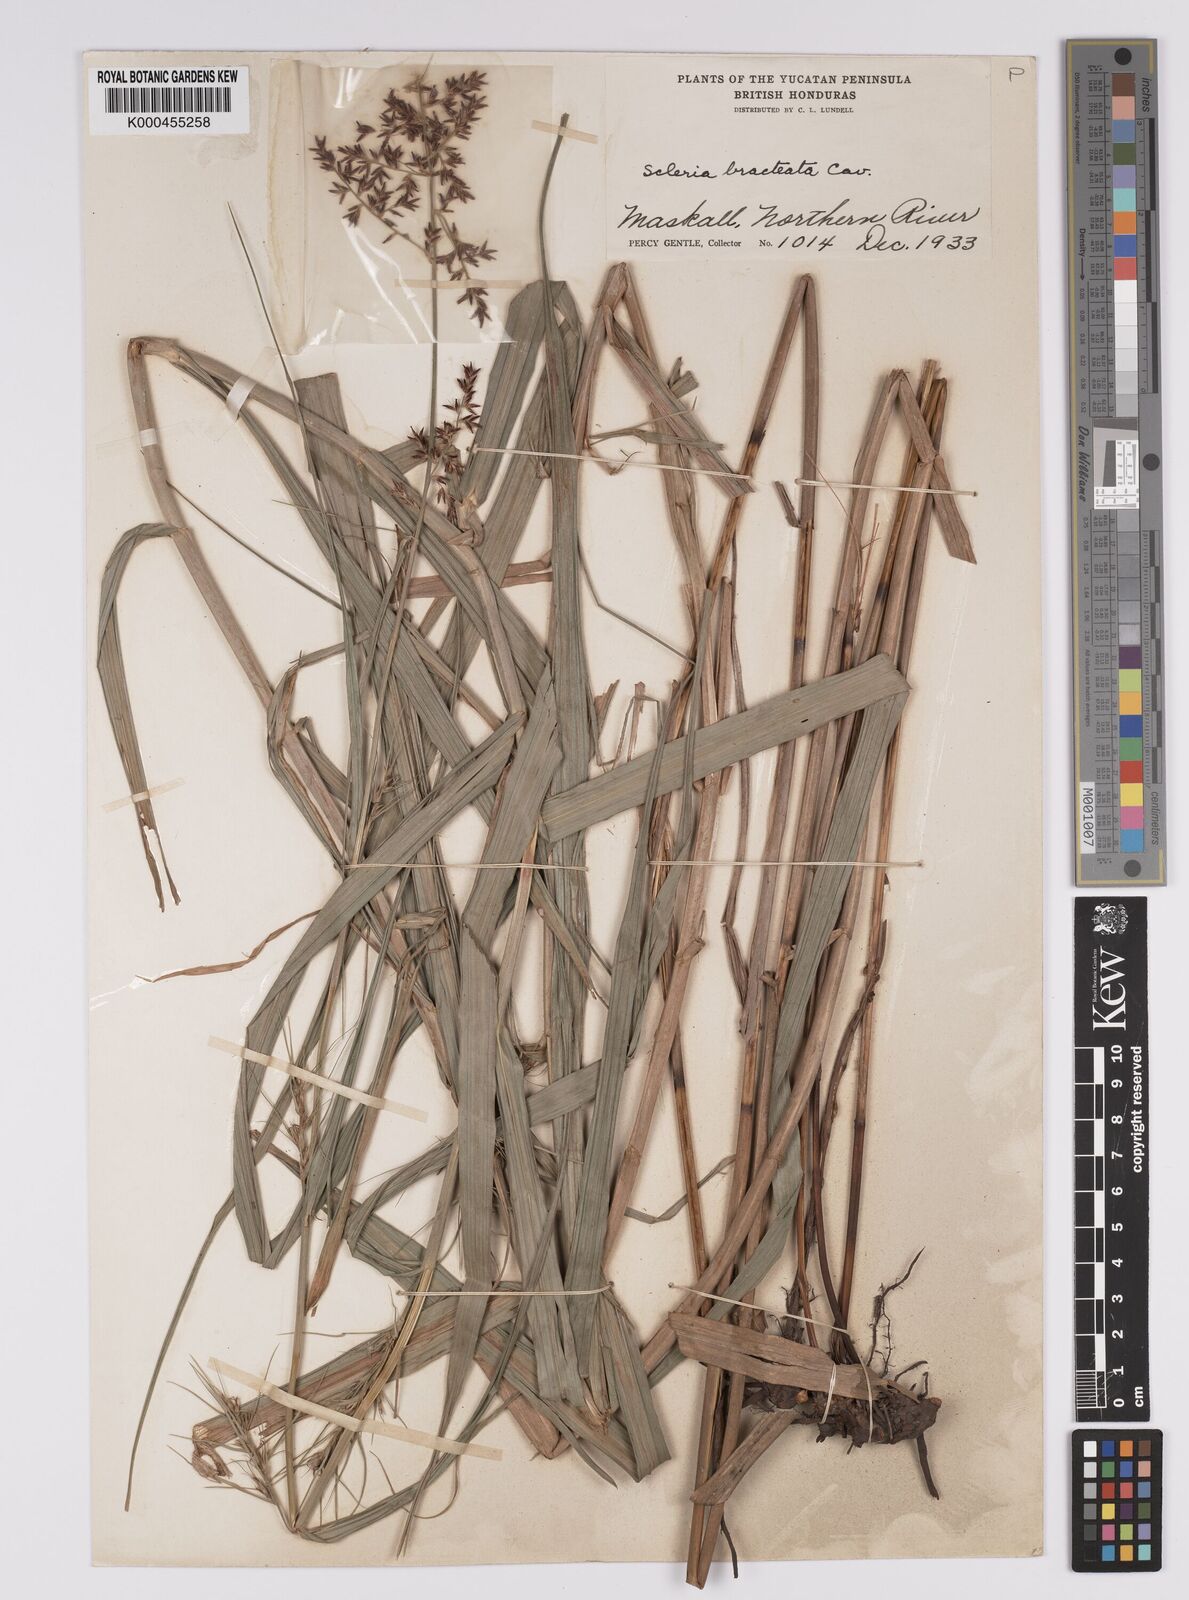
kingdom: Plantae
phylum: Tracheophyta
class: Liliopsida
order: Poales
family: Cyperaceae
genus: Scleria
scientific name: Scleria bracteata
